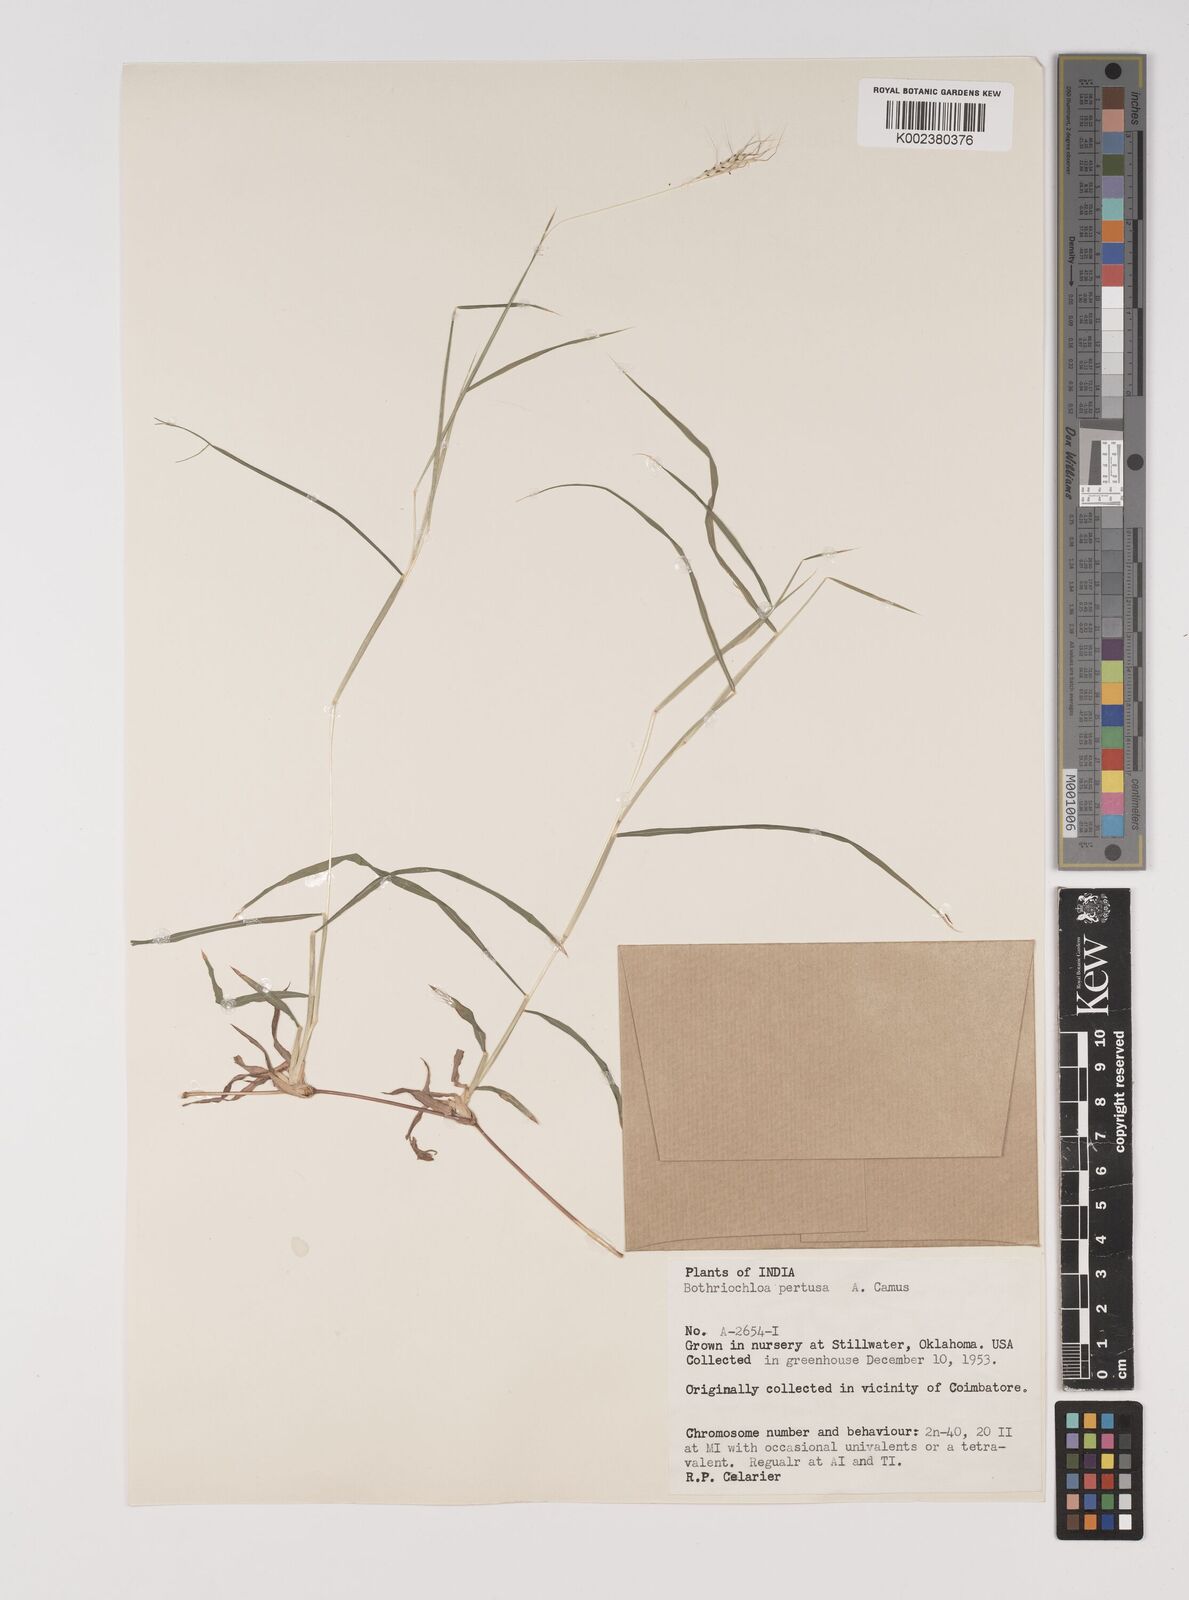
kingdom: Plantae
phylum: Tracheophyta
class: Liliopsida
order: Poales
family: Poaceae
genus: Bothriochloa
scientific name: Bothriochloa pertusa
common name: Pitted beardgrass
